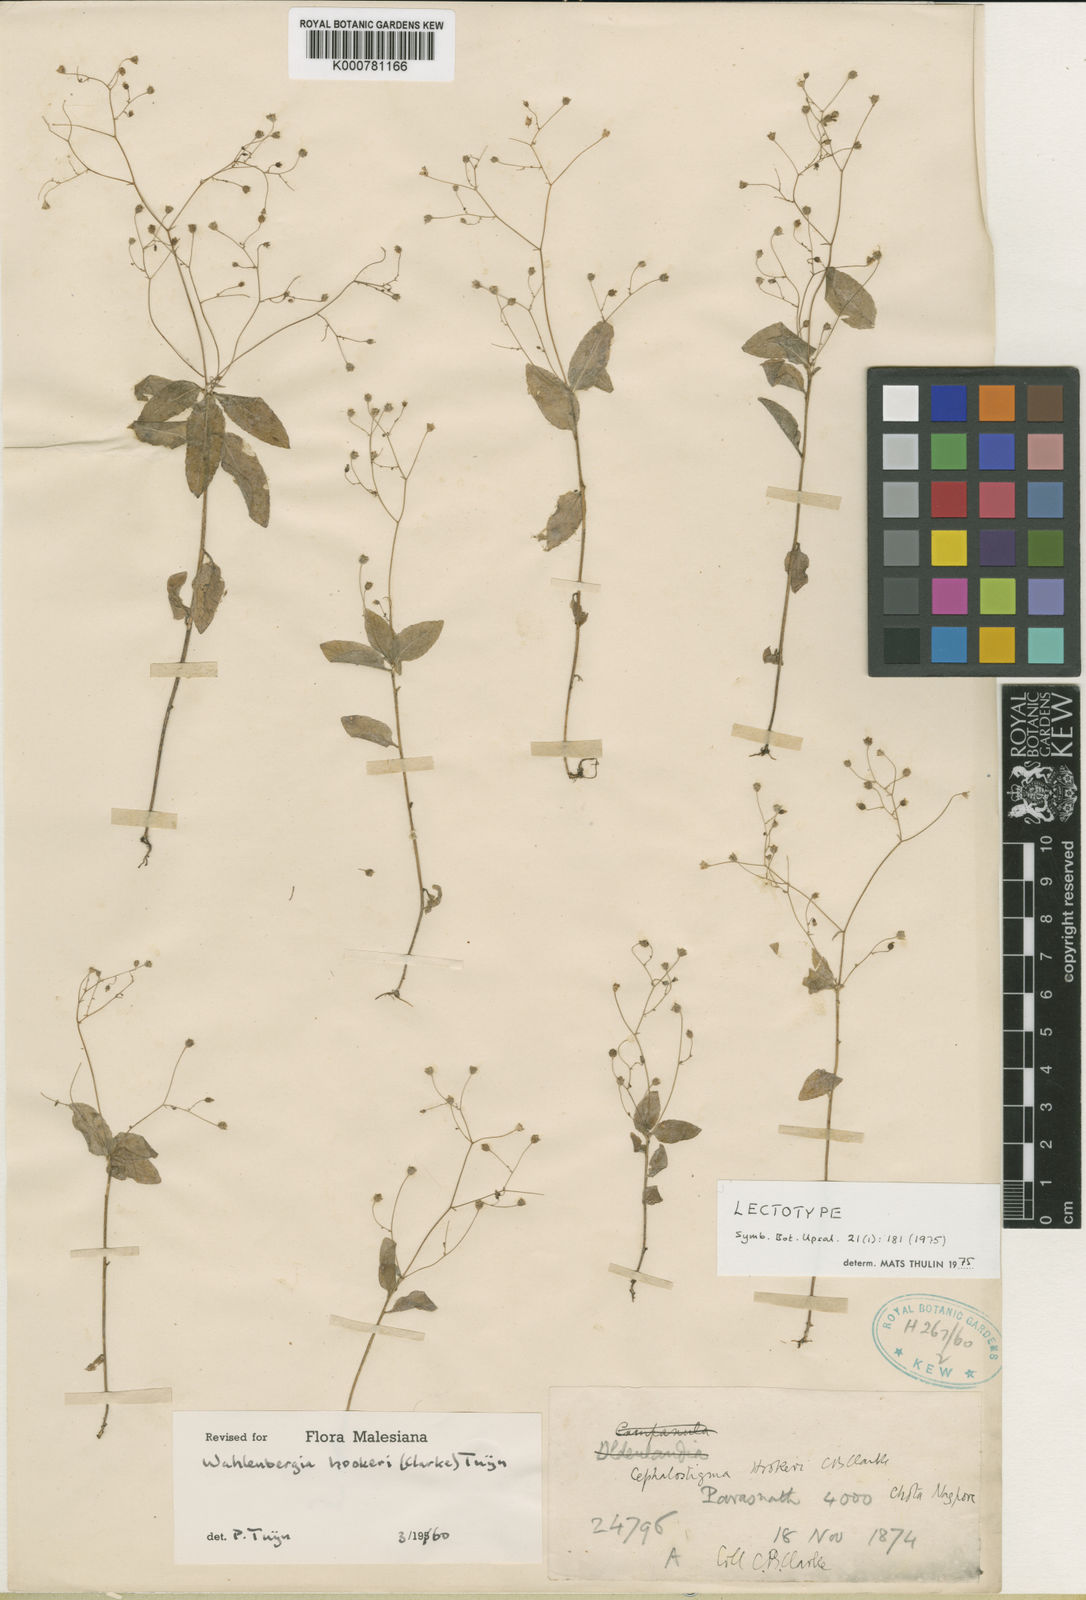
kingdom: Plantae
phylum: Tracheophyta
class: Magnoliopsida
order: Asterales
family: Campanulaceae
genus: Wahlenbergia
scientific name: Wahlenbergia hookeri
